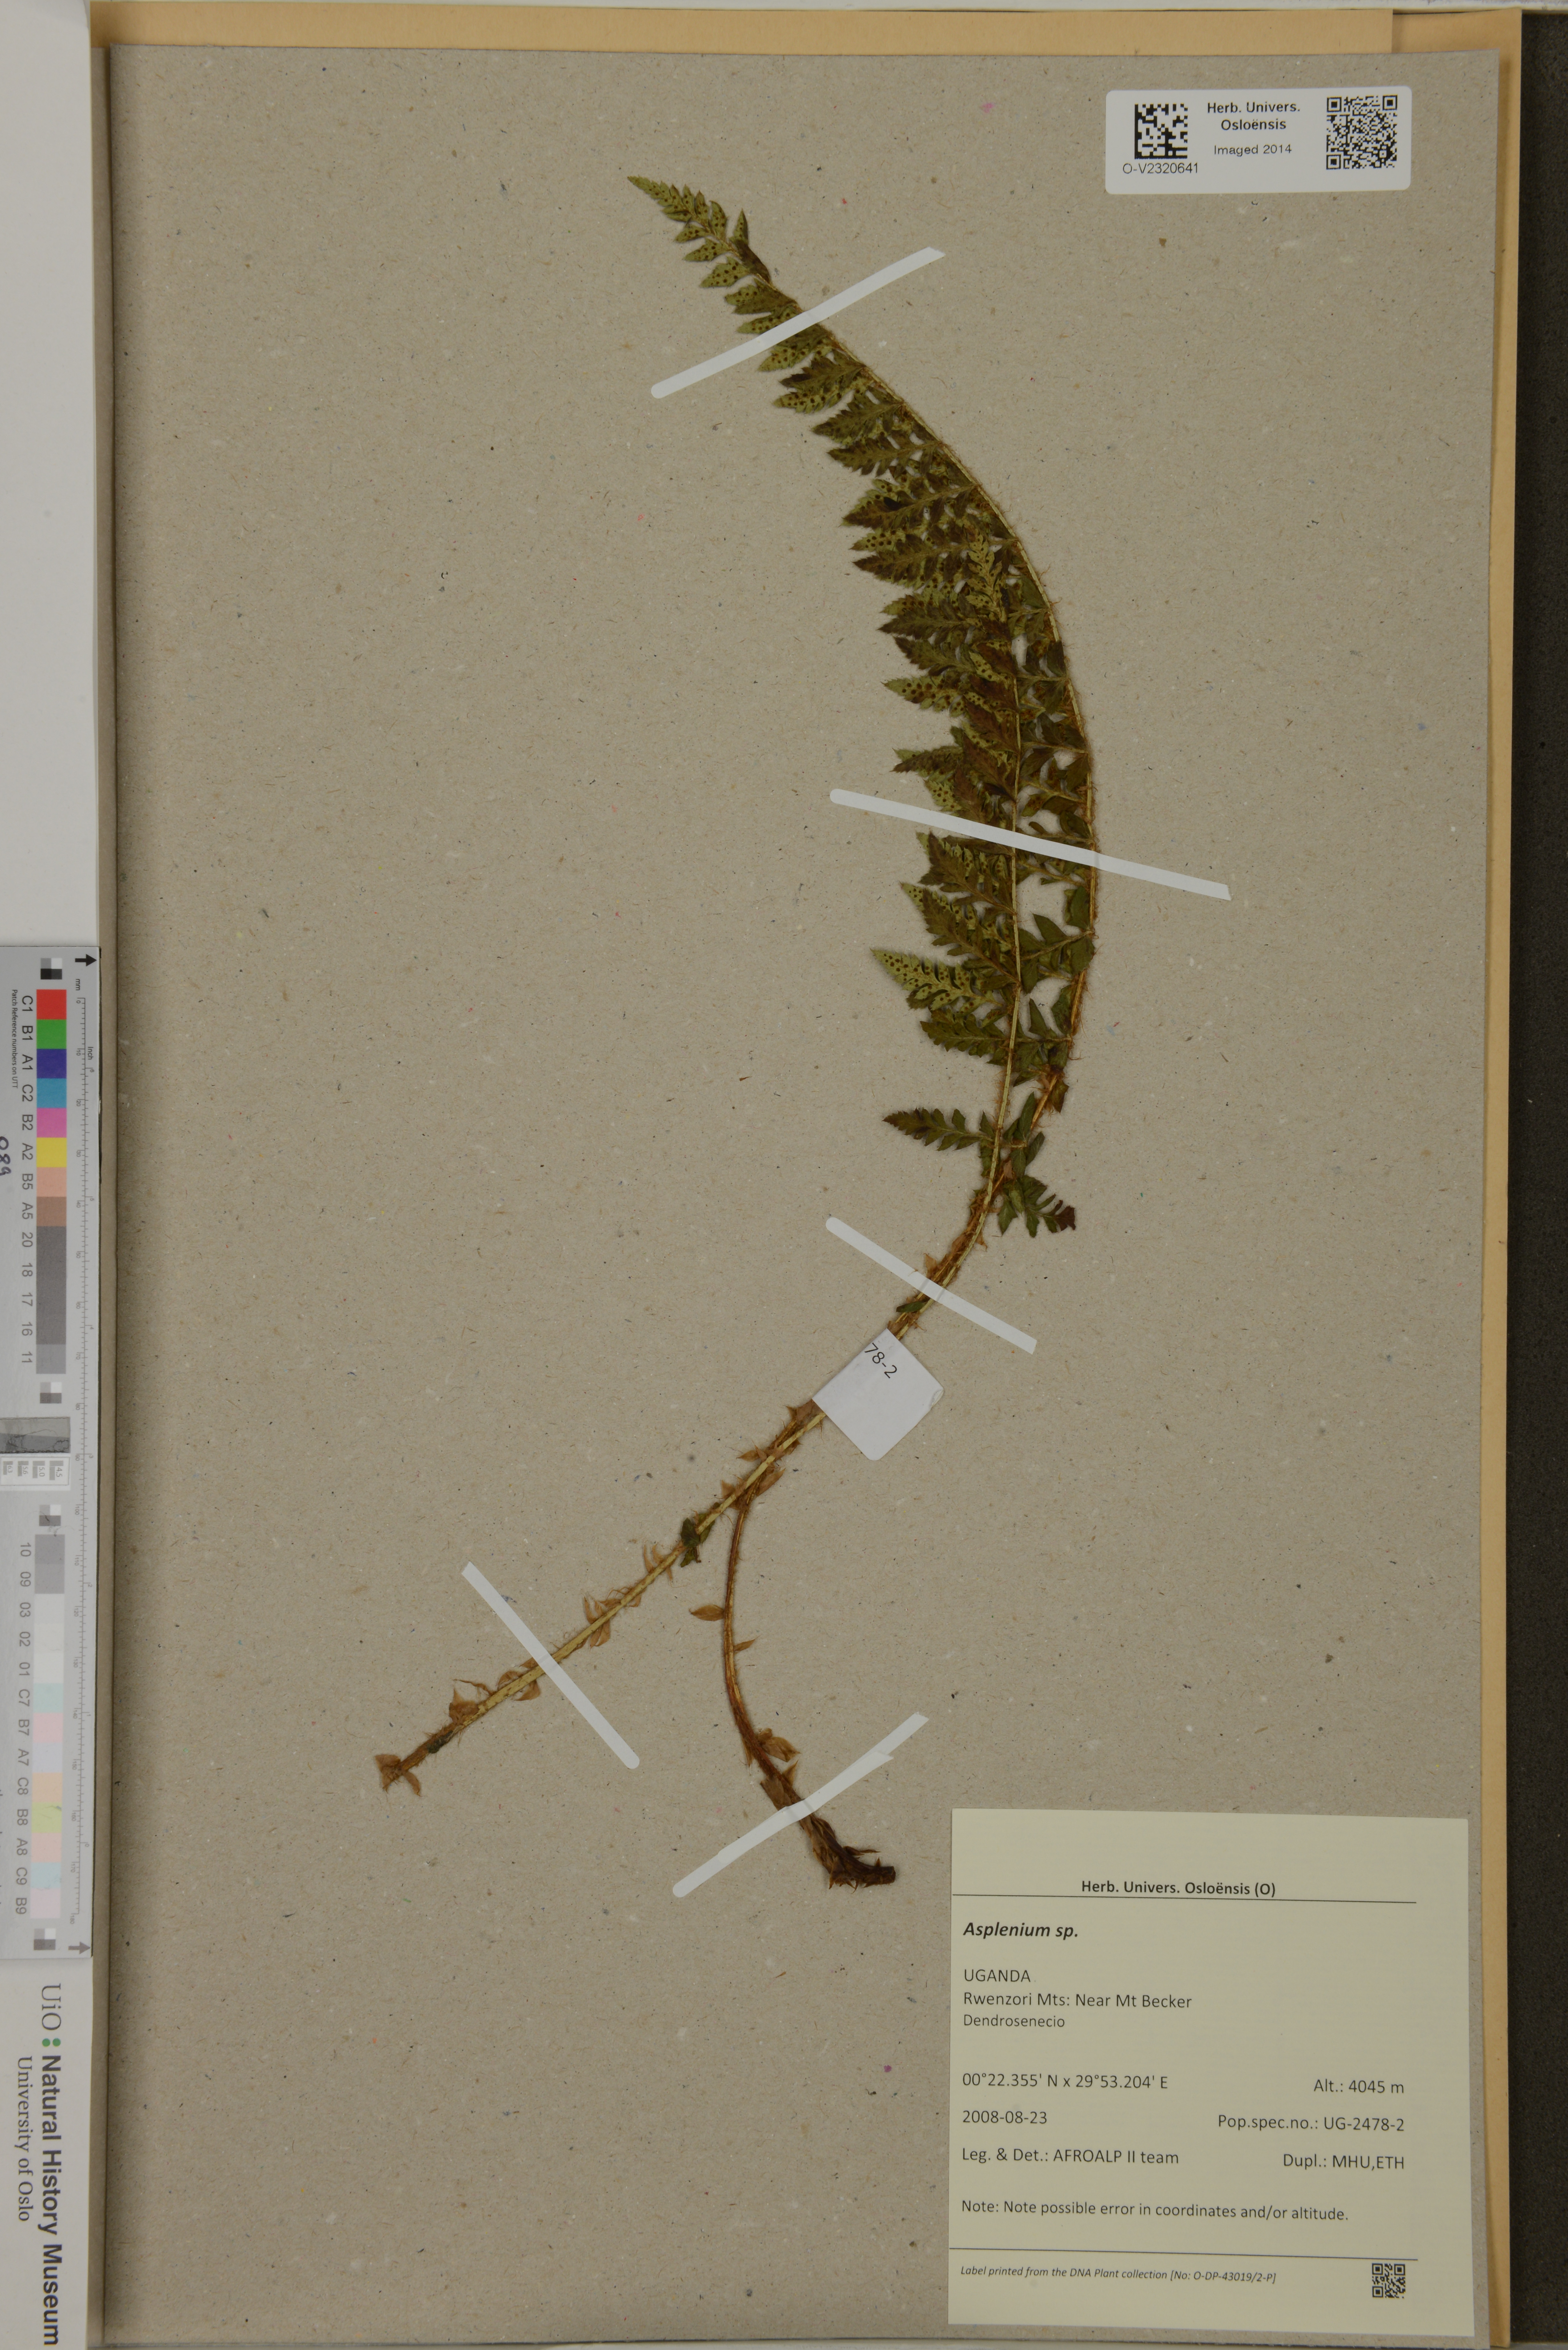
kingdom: Plantae
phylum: Tracheophyta
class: Polypodiopsida
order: Polypodiales
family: Aspleniaceae
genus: Asplenium
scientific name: Asplenium
